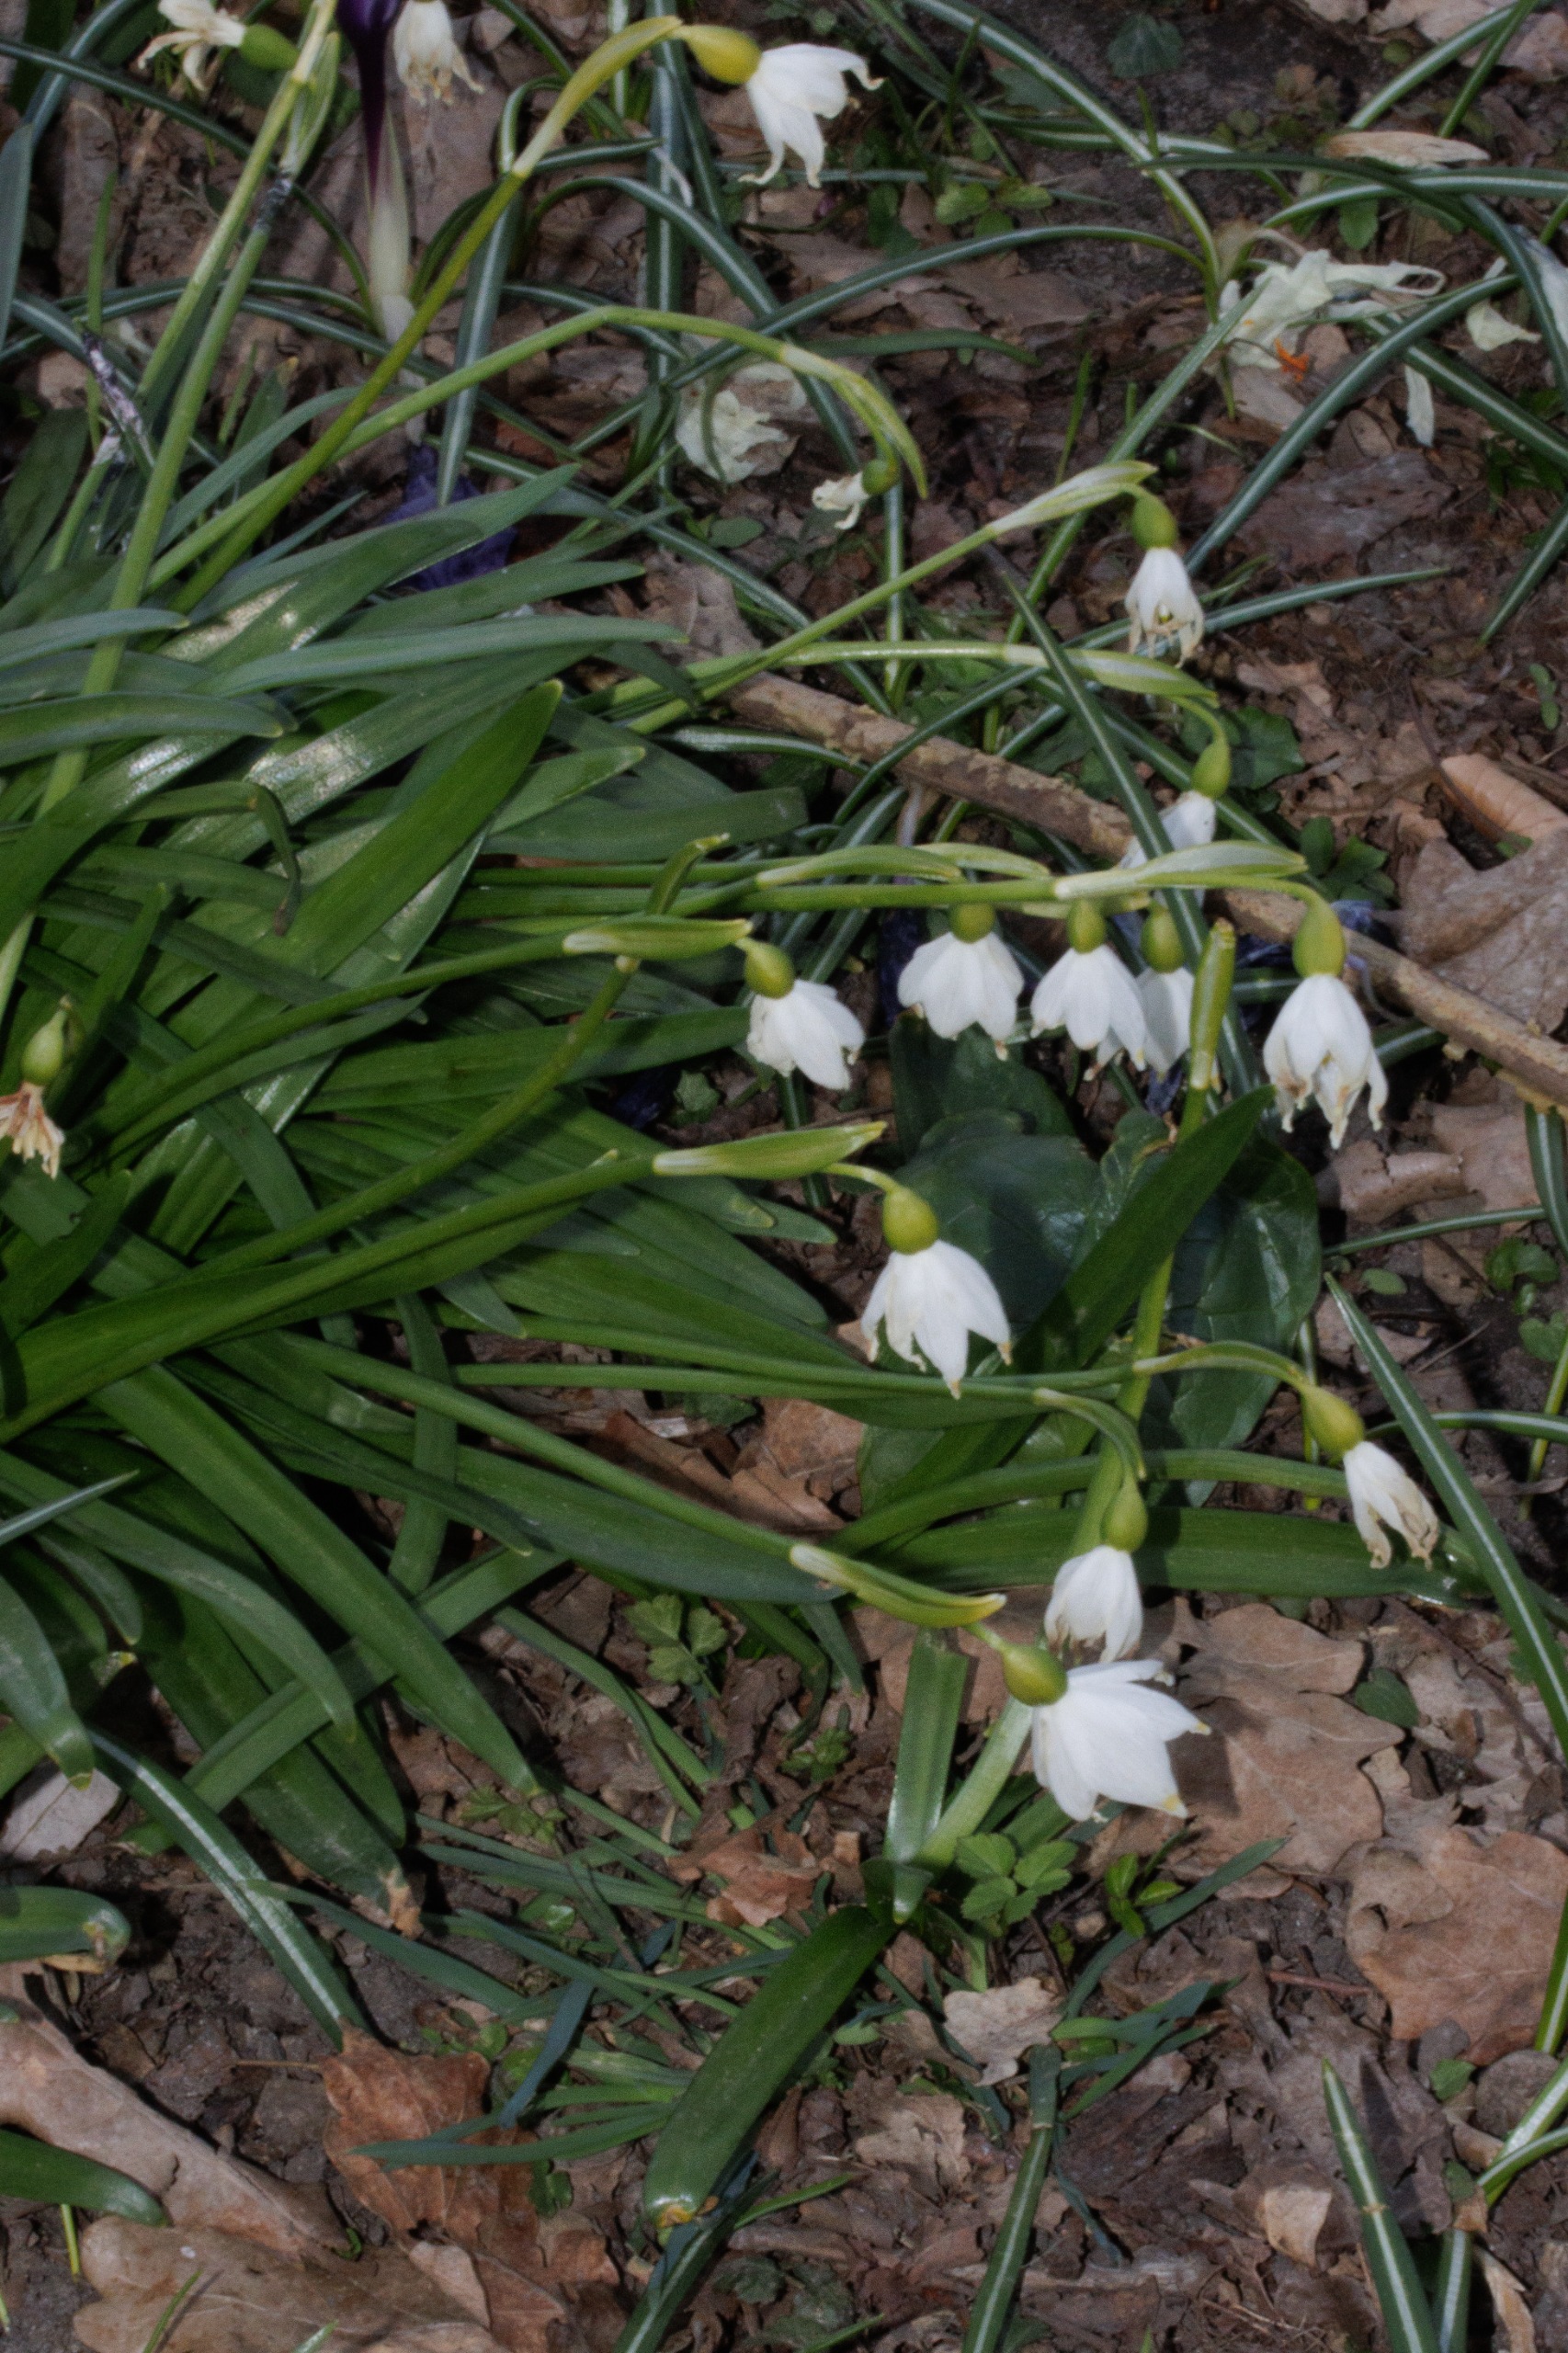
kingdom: Plantae
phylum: Tracheophyta
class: Liliopsida
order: Asparagales
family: Amaryllidaceae
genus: Leucojum
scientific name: Leucojum vernum
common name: Dorthealilje
